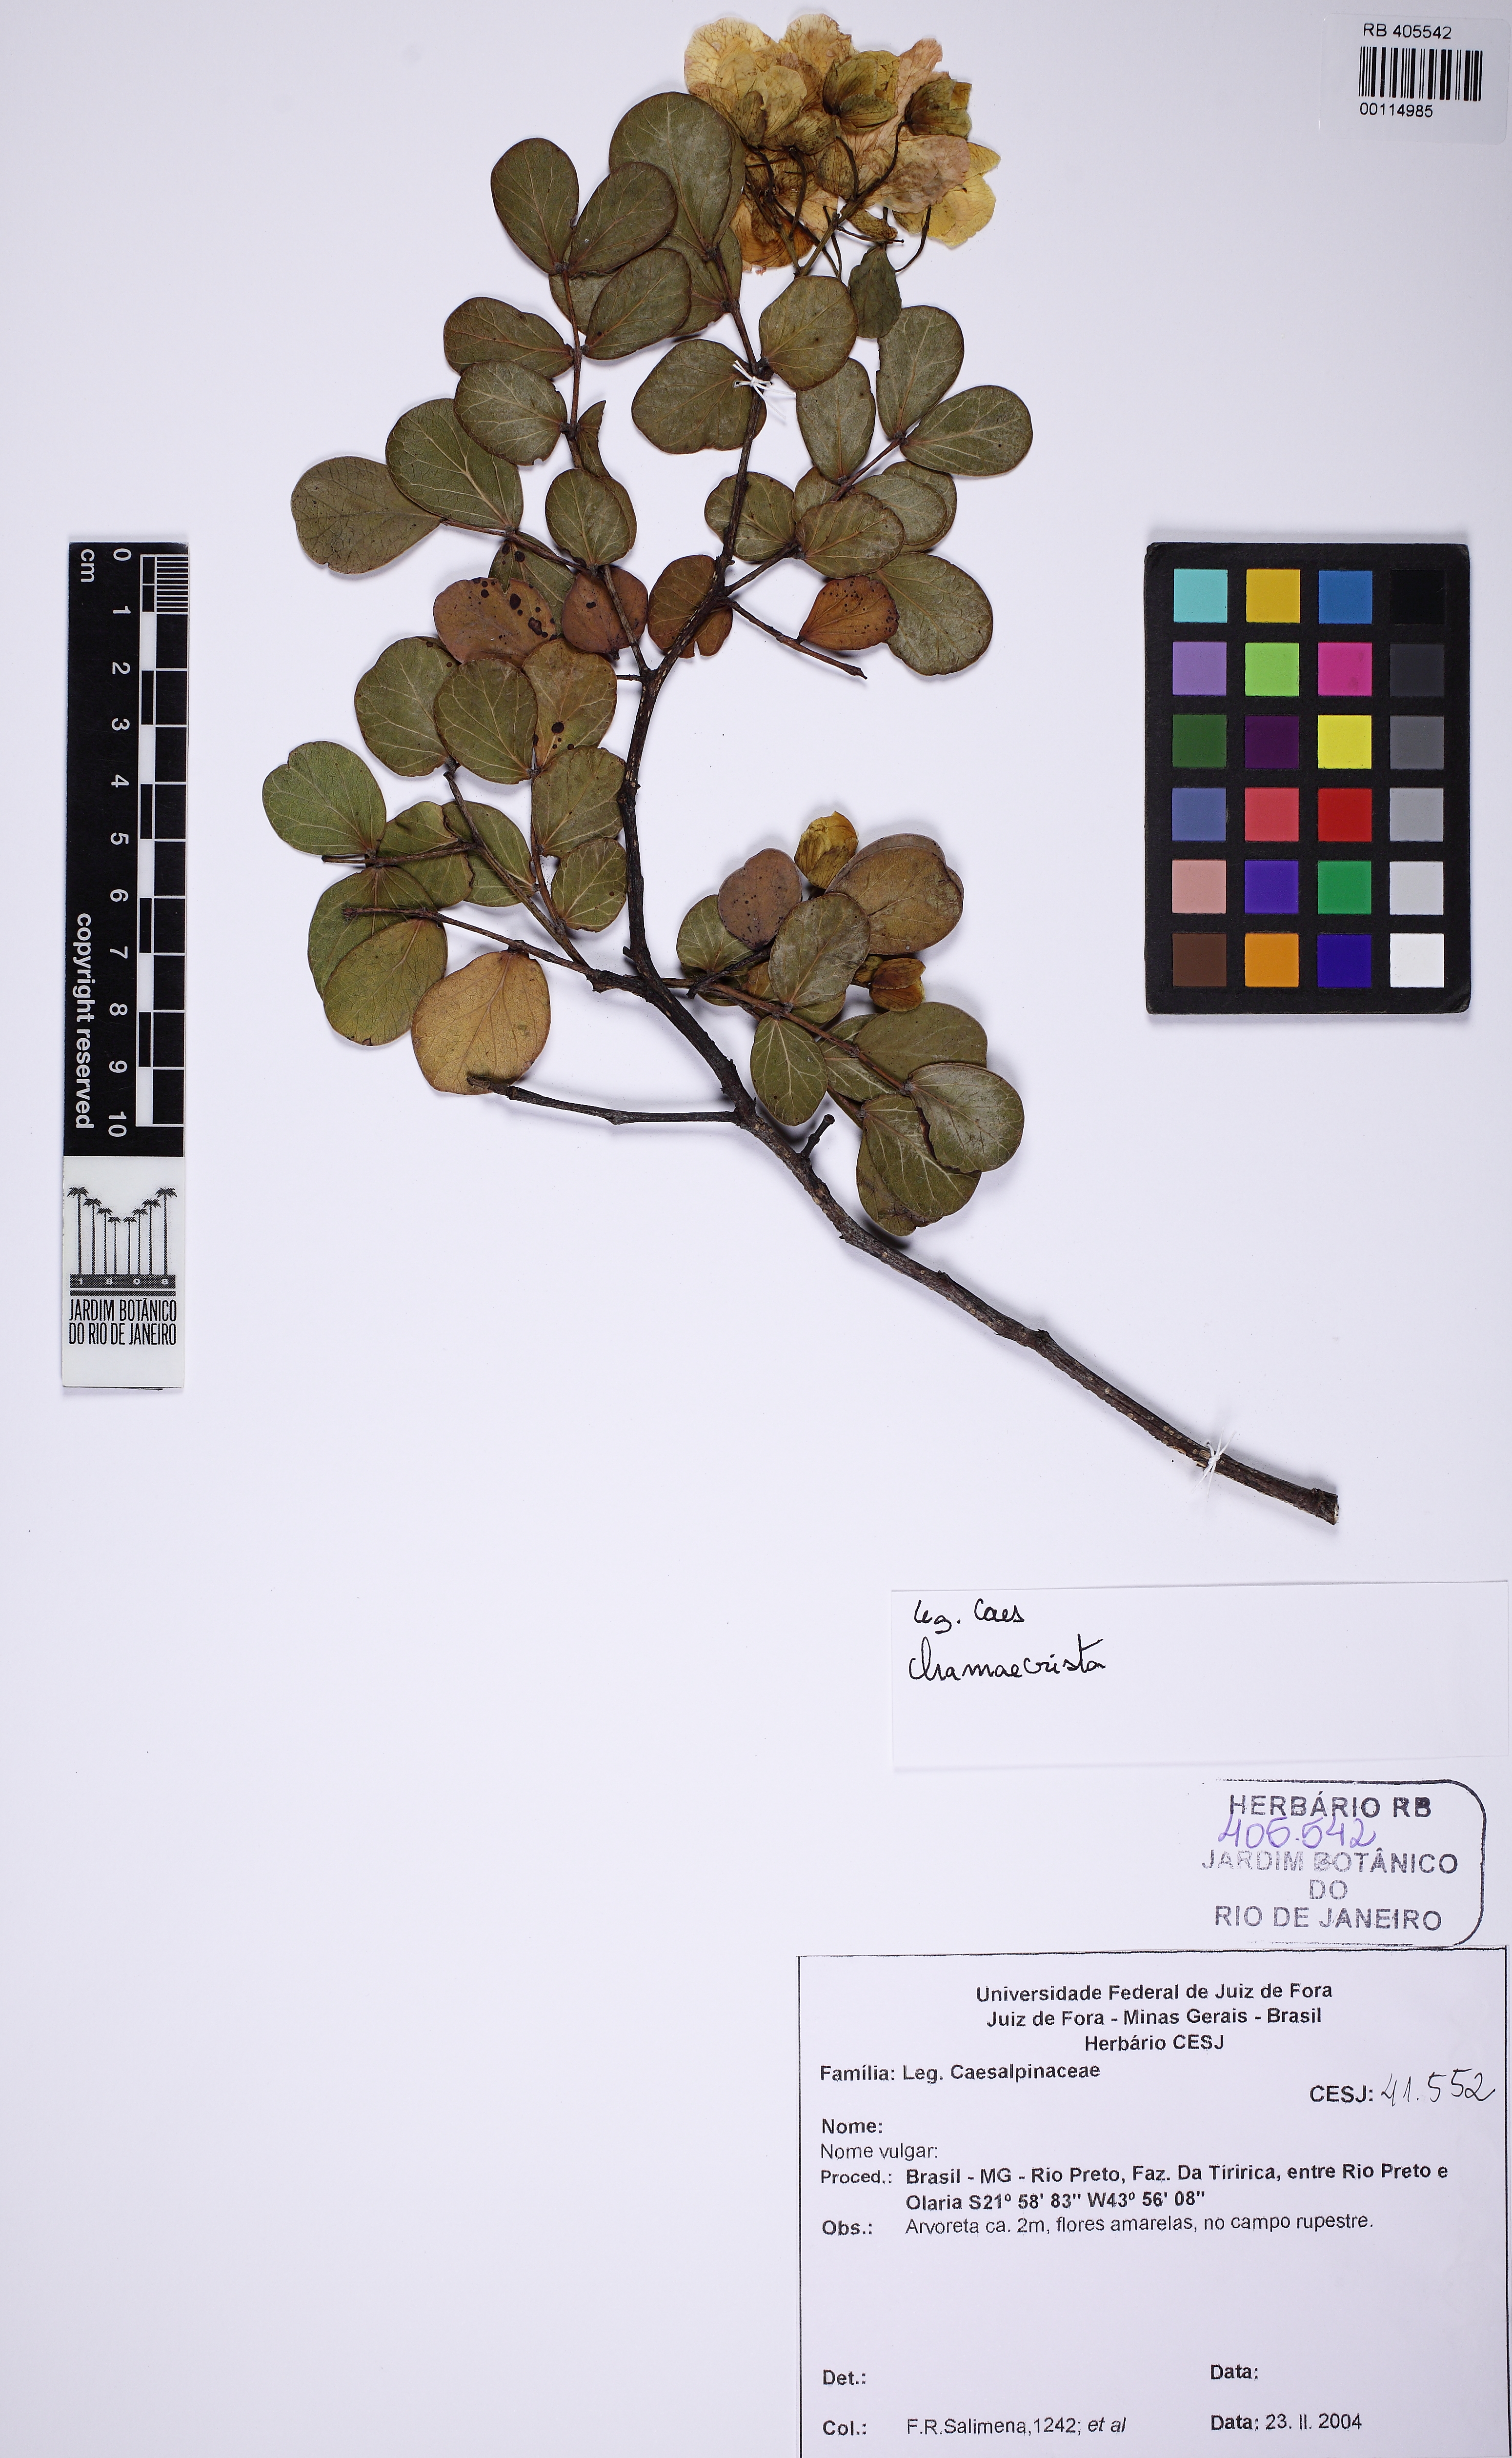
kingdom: Plantae
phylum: Tracheophyta
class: Magnoliopsida
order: Fabales
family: Fabaceae
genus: Chamaecrista
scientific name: Chamaecrista cytisoides
